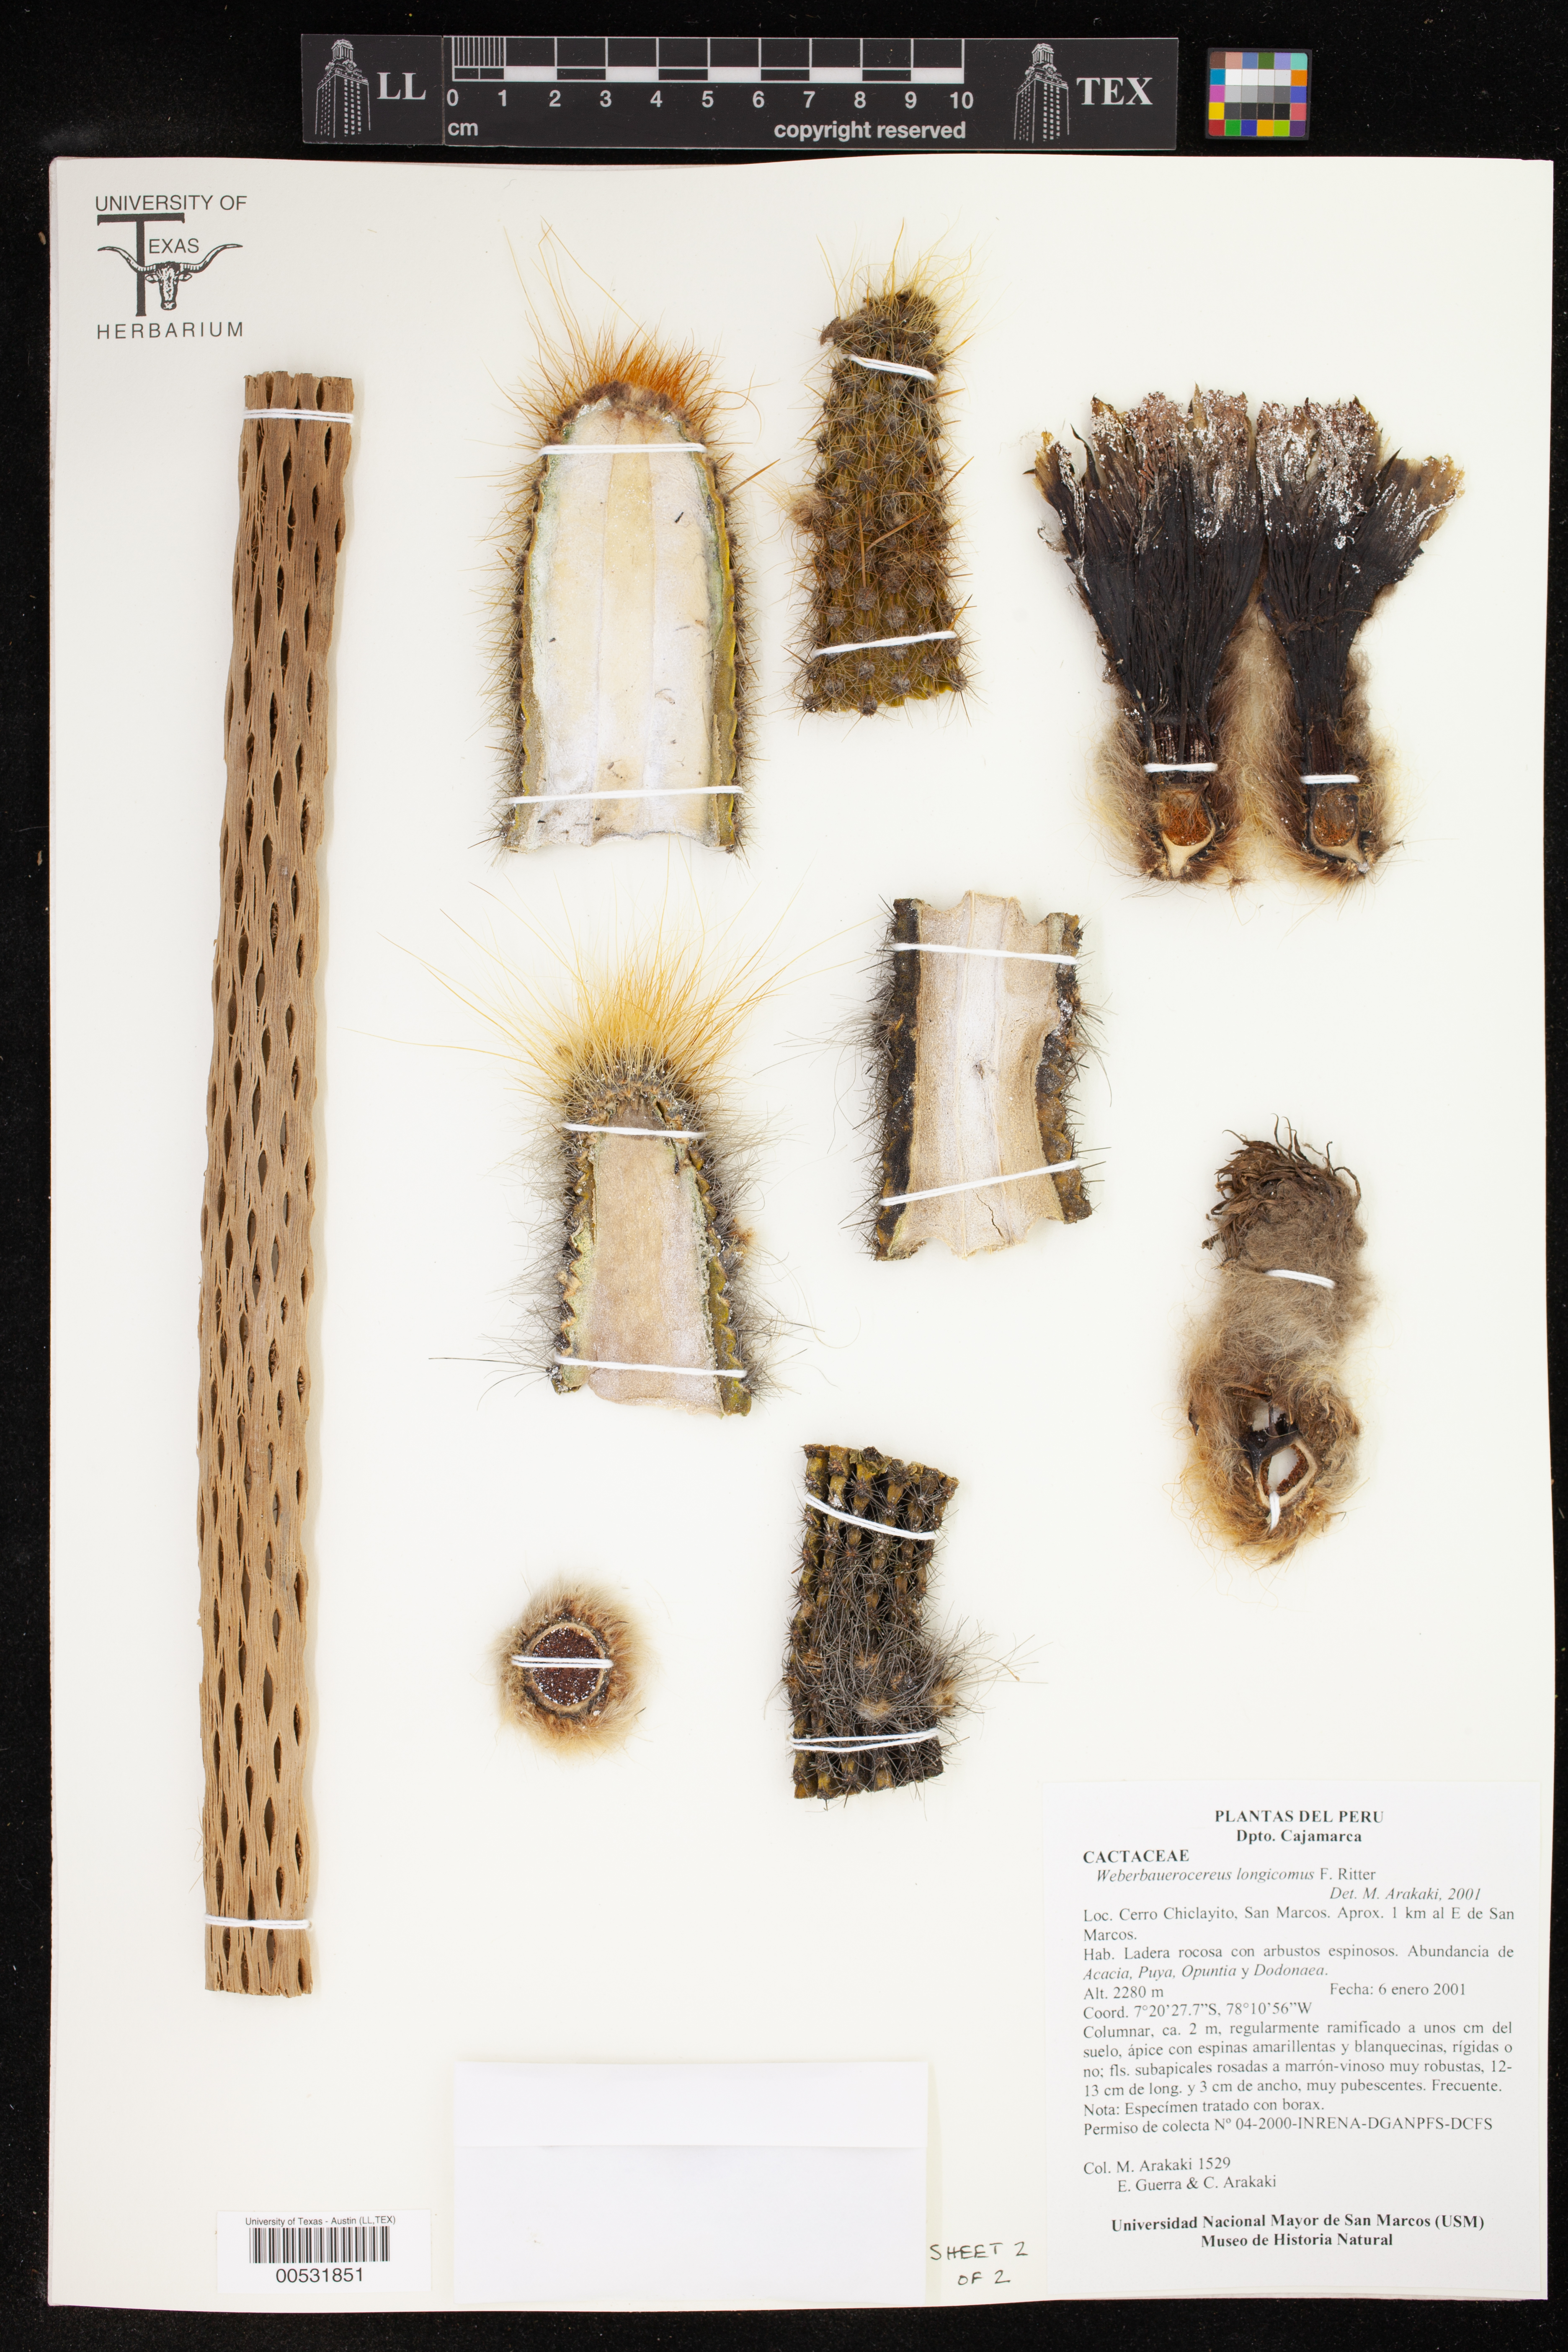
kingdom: Plantae
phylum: Tracheophyta
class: Magnoliopsida
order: Caryophyllales
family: Cactaceae
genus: Weberbauerocereus
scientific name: Weberbauerocereus albus
